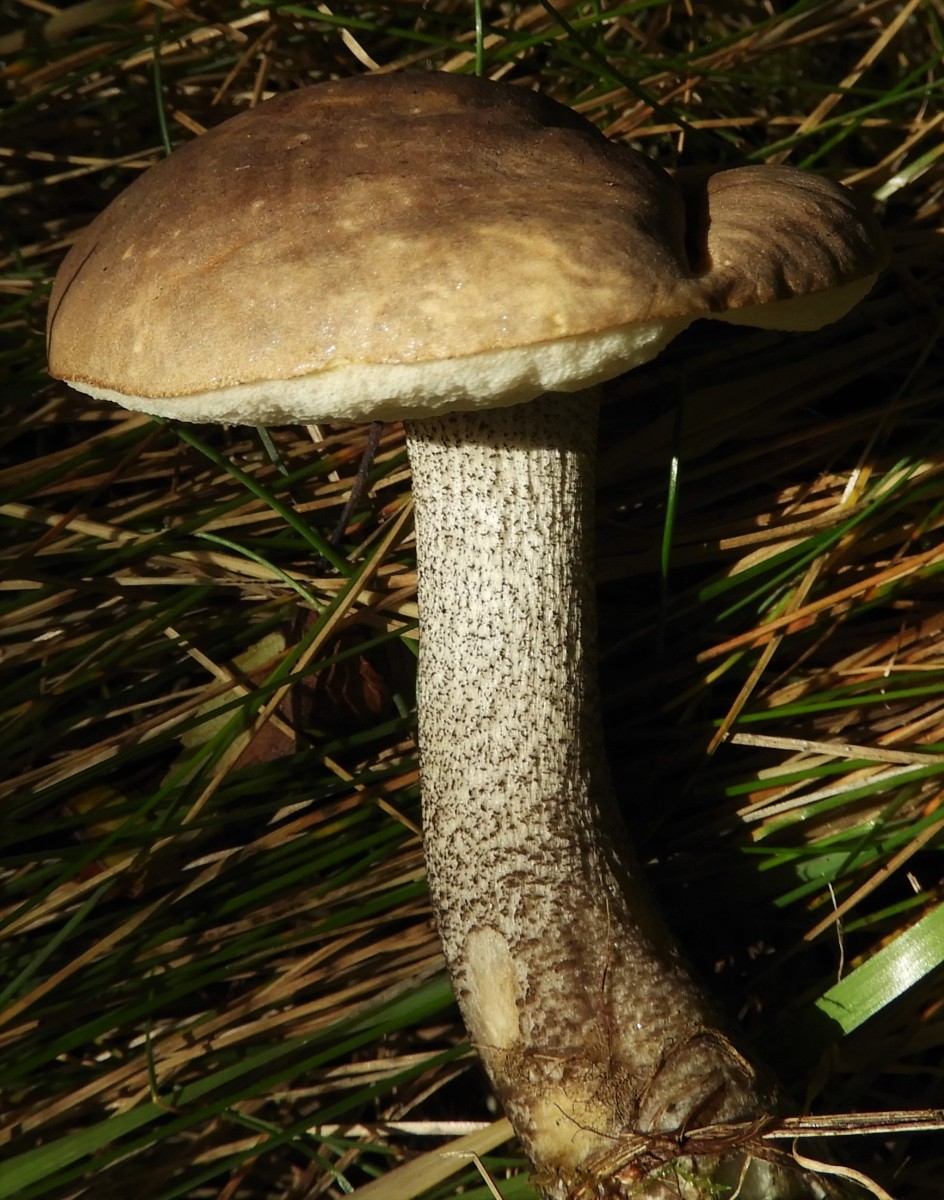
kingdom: Fungi
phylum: Basidiomycota
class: Agaricomycetes
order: Boletales
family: Boletaceae
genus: Leccinum
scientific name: Leccinum scabrum
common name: brun skælrørhat
